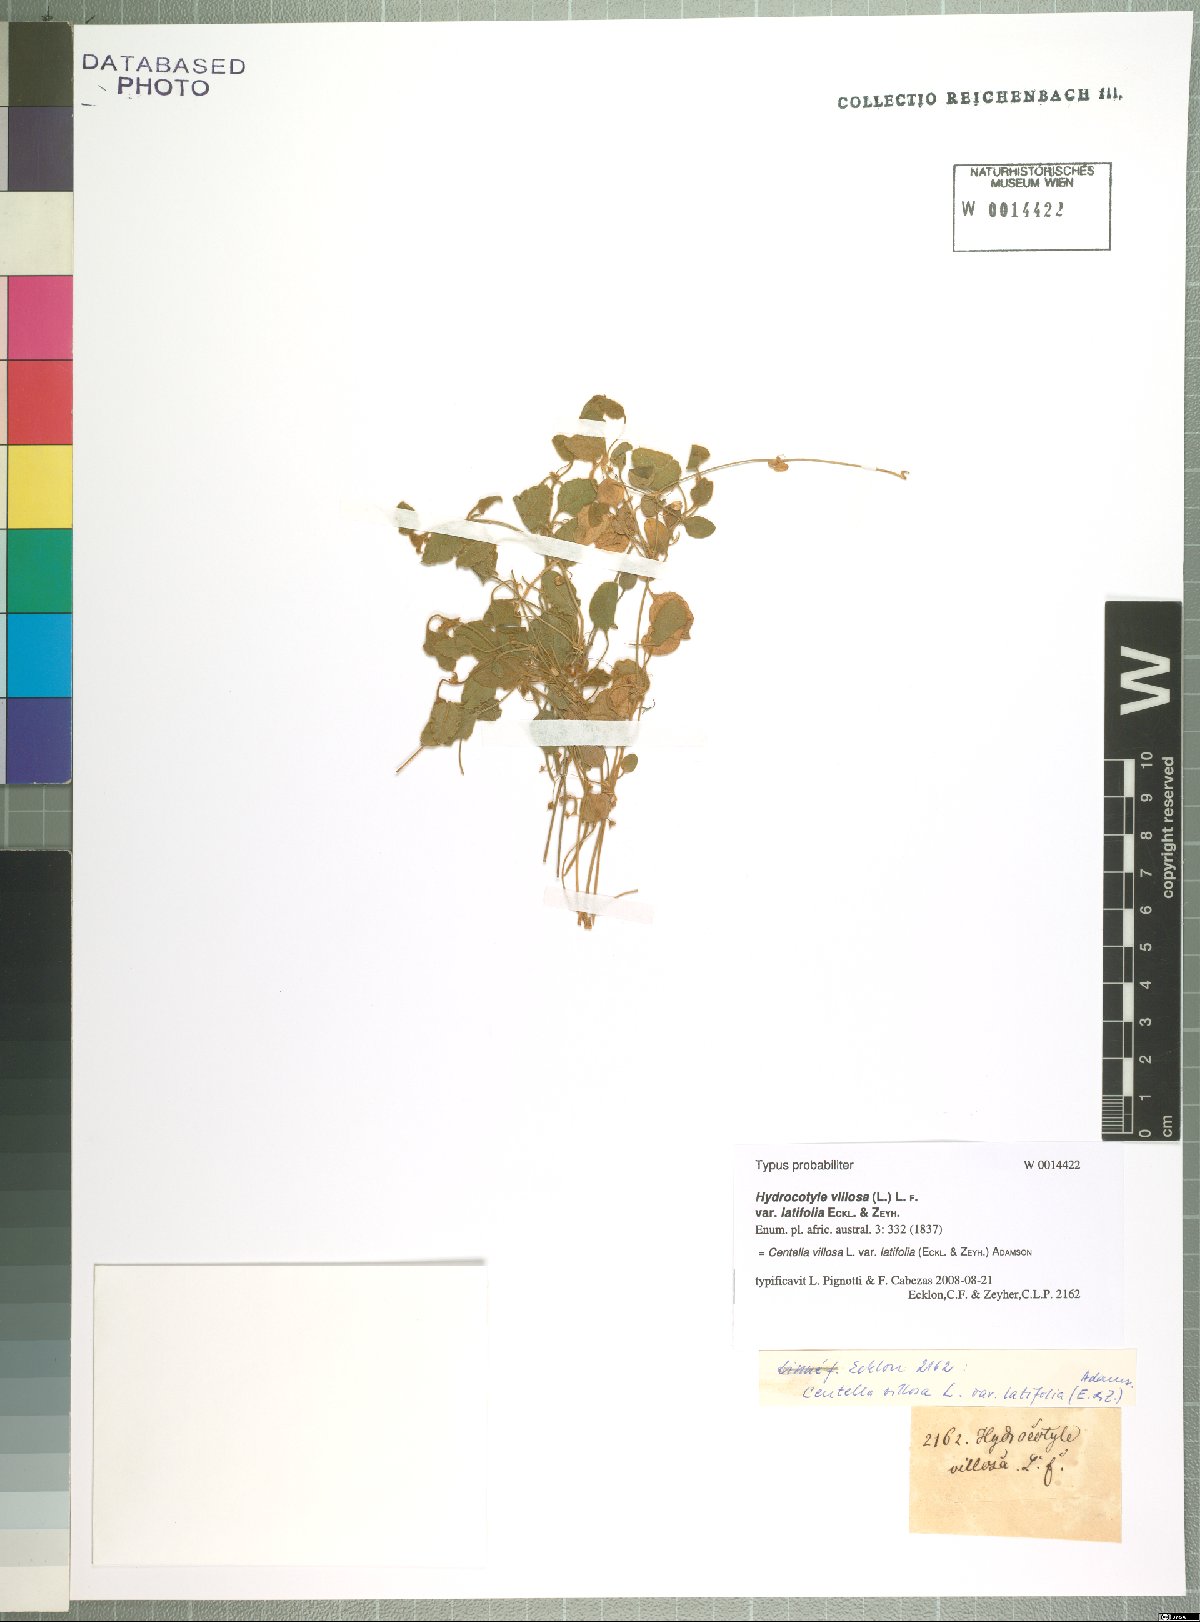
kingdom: Plantae
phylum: Tracheophyta
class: Magnoliopsida
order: Apiales
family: Apiaceae
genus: Centella
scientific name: Centella villosa
